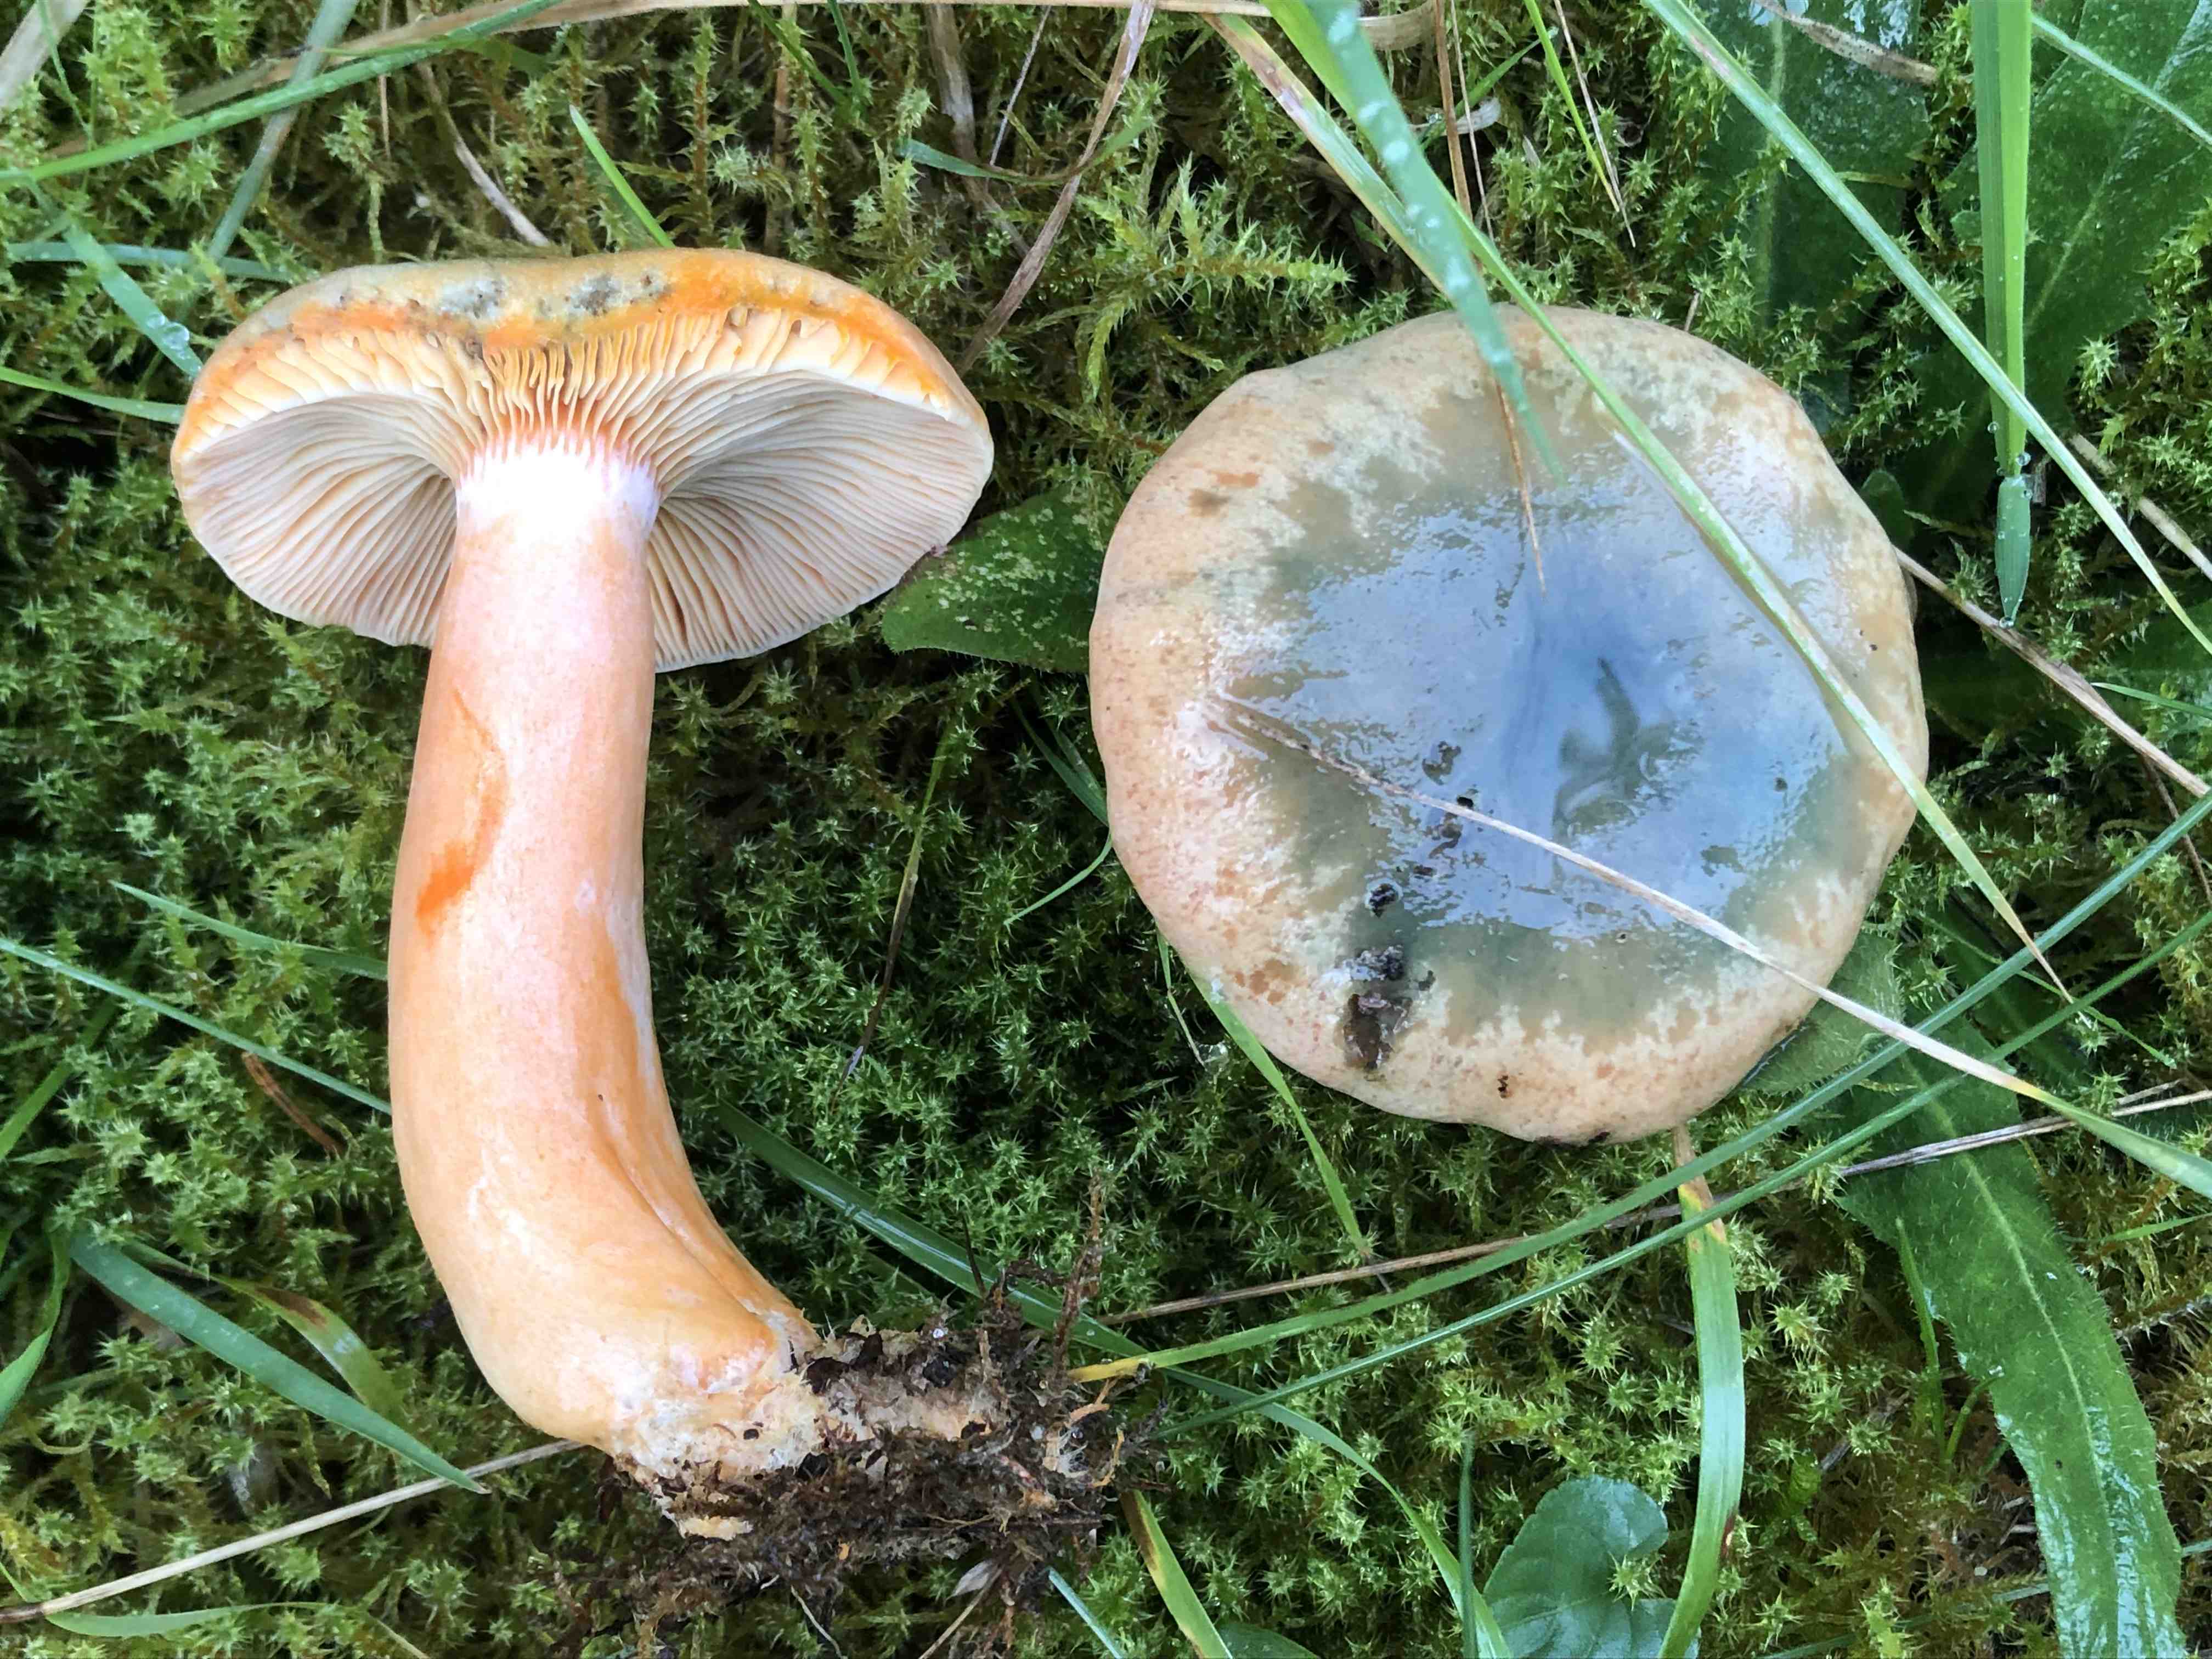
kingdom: Fungi
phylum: Basidiomycota
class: Agaricomycetes
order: Russulales
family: Russulaceae
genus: Lactarius
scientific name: Lactarius deterrimus
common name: gran-mælkehat
